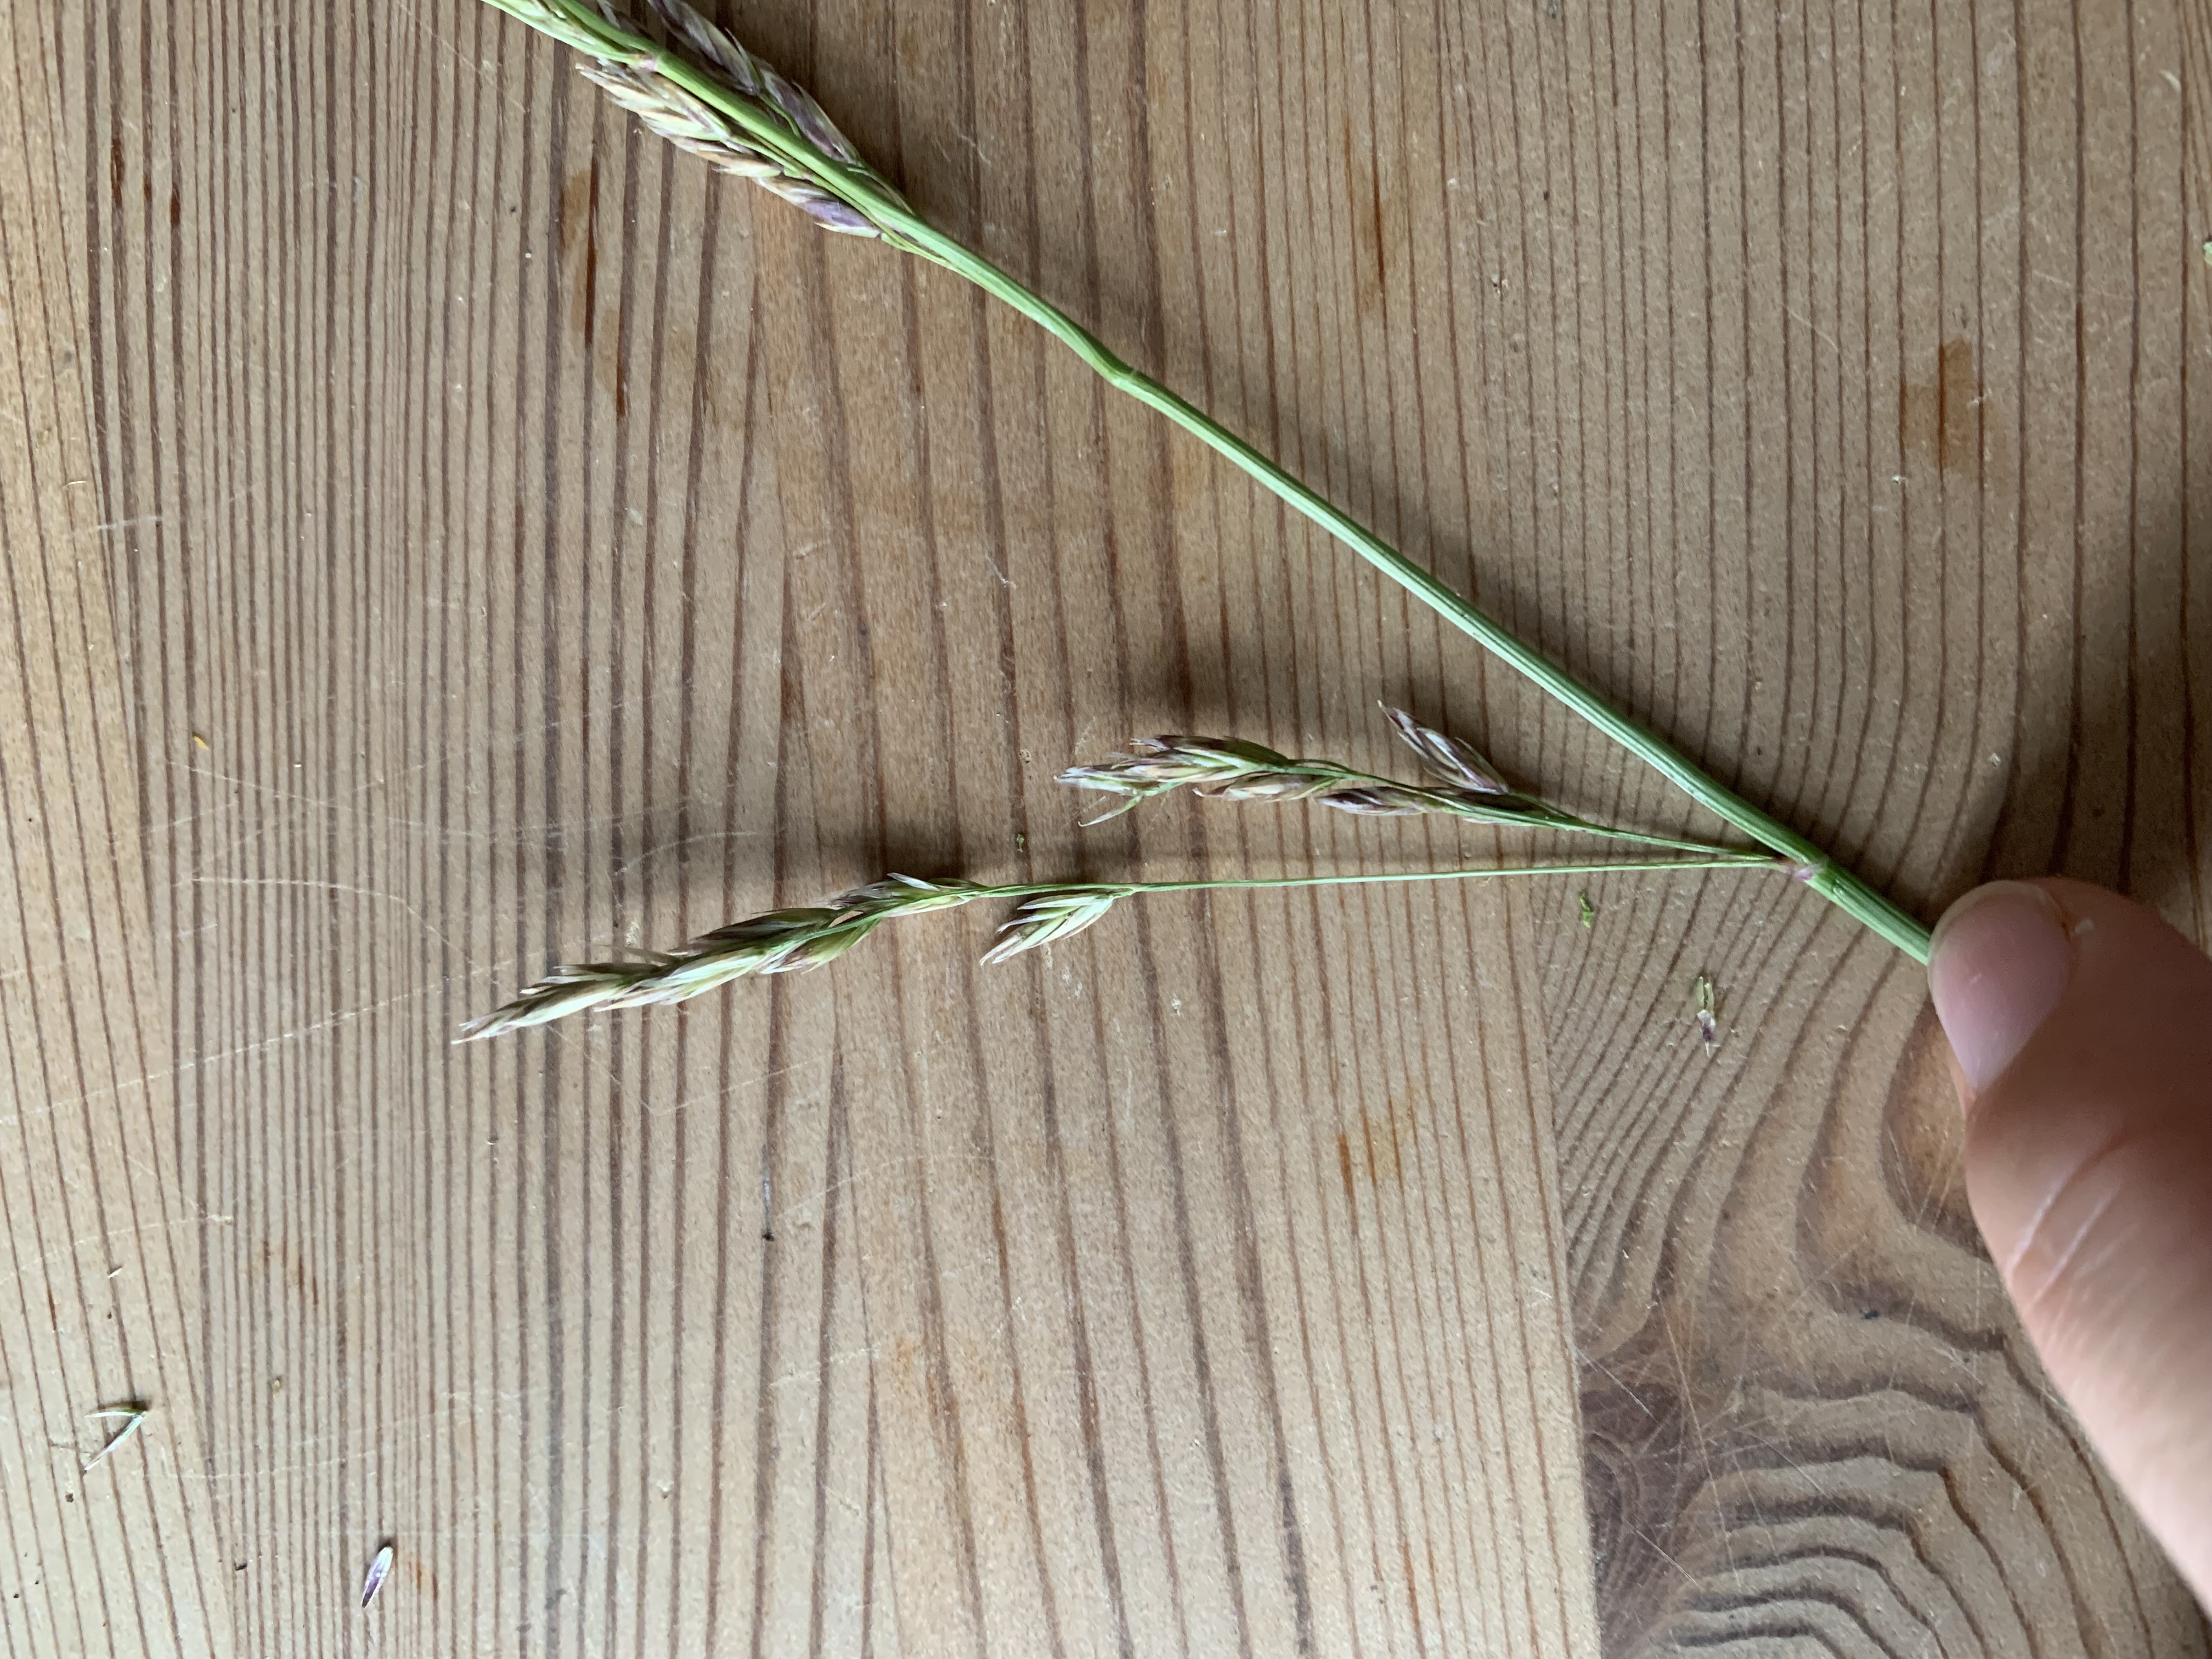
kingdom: Plantae
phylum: Tracheophyta
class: Liliopsida
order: Poales
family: Poaceae
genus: Lolium
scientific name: Lolium arundinaceum
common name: Strand-svingel
